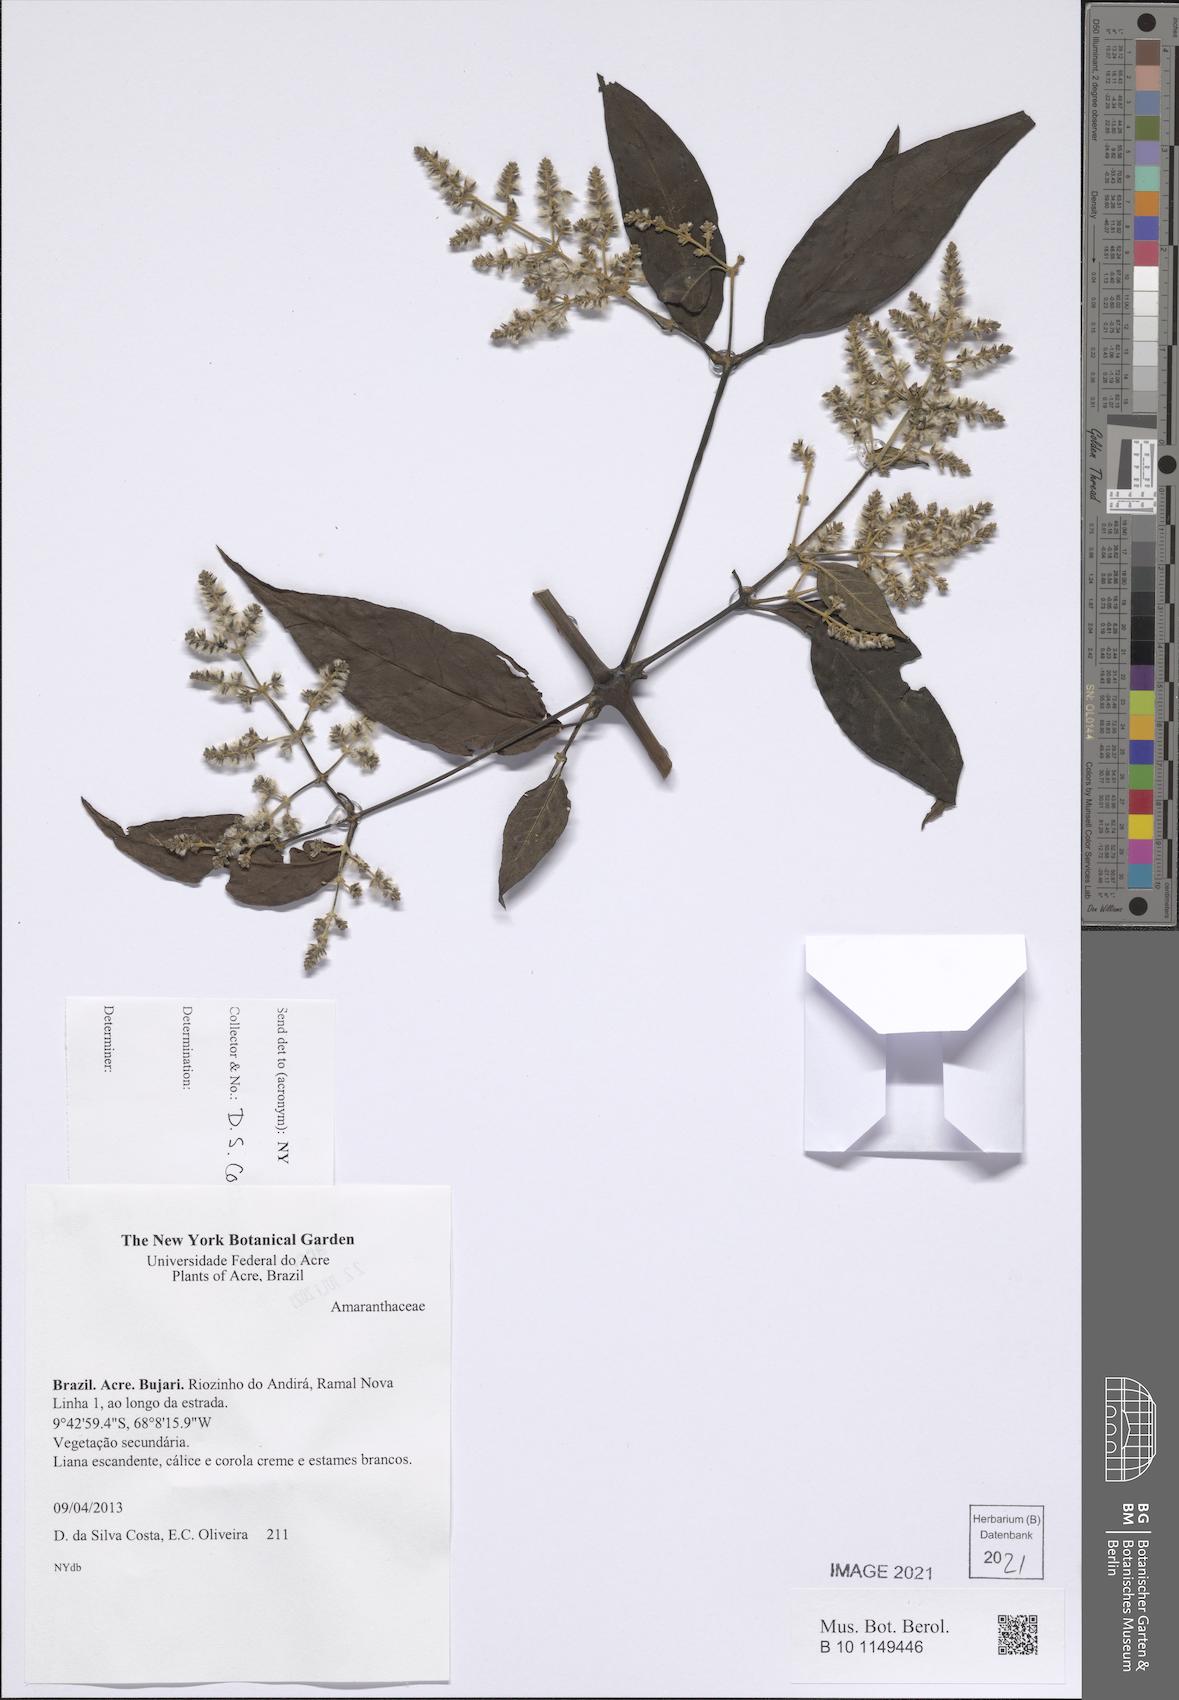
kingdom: Plantae
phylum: Tracheophyta
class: Magnoliopsida
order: Caryophyllales
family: Amaranthaceae
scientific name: Amaranthaceae
